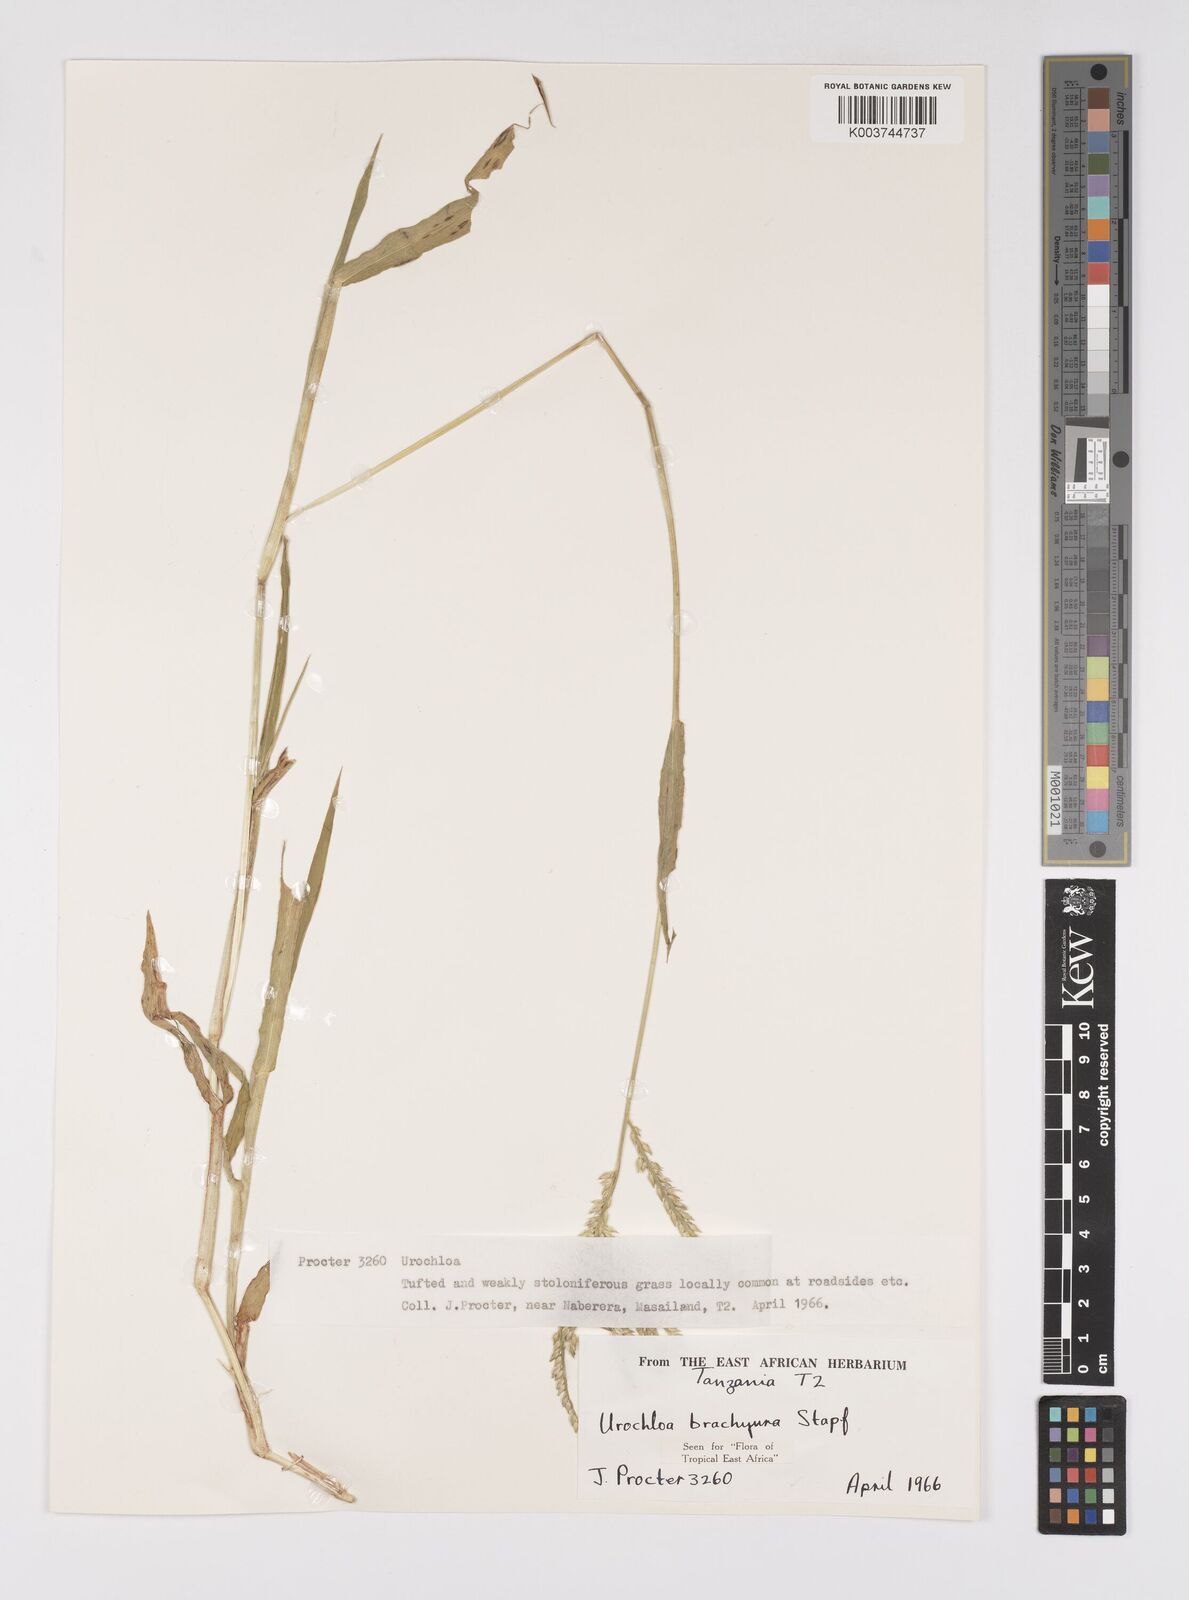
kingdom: Plantae
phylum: Tracheophyta
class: Liliopsida
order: Poales
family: Poaceae
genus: Urochloa
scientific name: Urochloa brachyura
